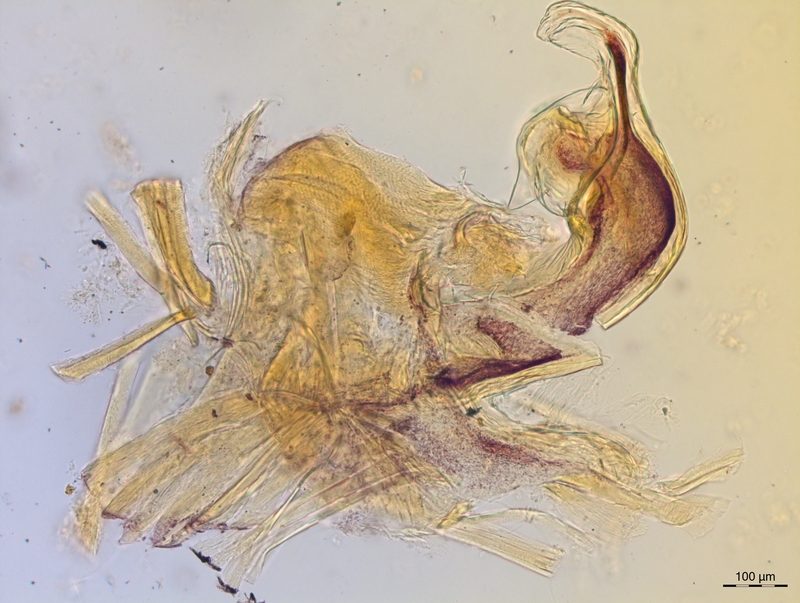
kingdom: Animalia
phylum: Arthropoda
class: Diplopoda
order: Chordeumatida
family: Craspedosomatidae
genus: Craspedosoma
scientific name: Craspedosoma slavum
